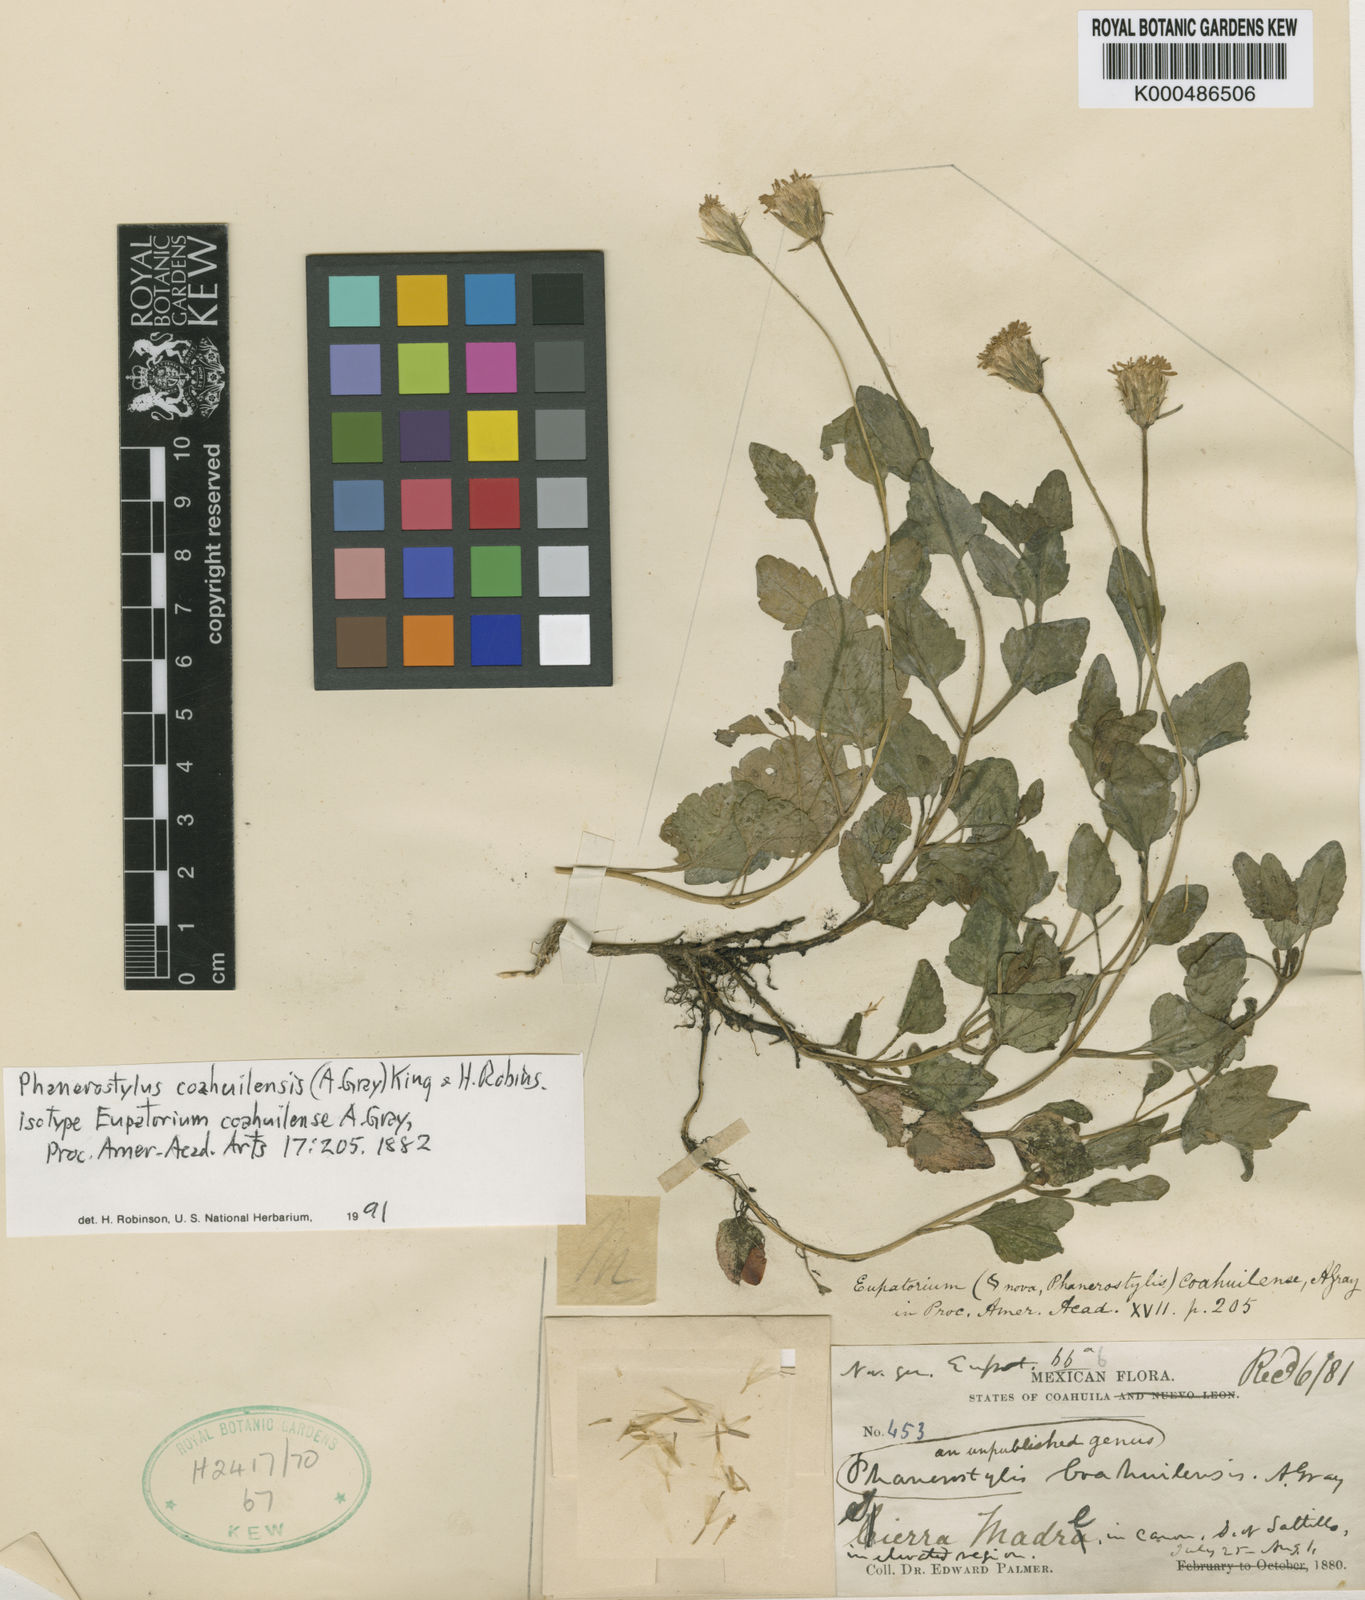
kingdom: Plantae
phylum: Tracheophyta
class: Magnoliopsida
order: Asterales
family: Asteraceae
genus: Brickellia
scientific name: Brickellia coahuilensis
